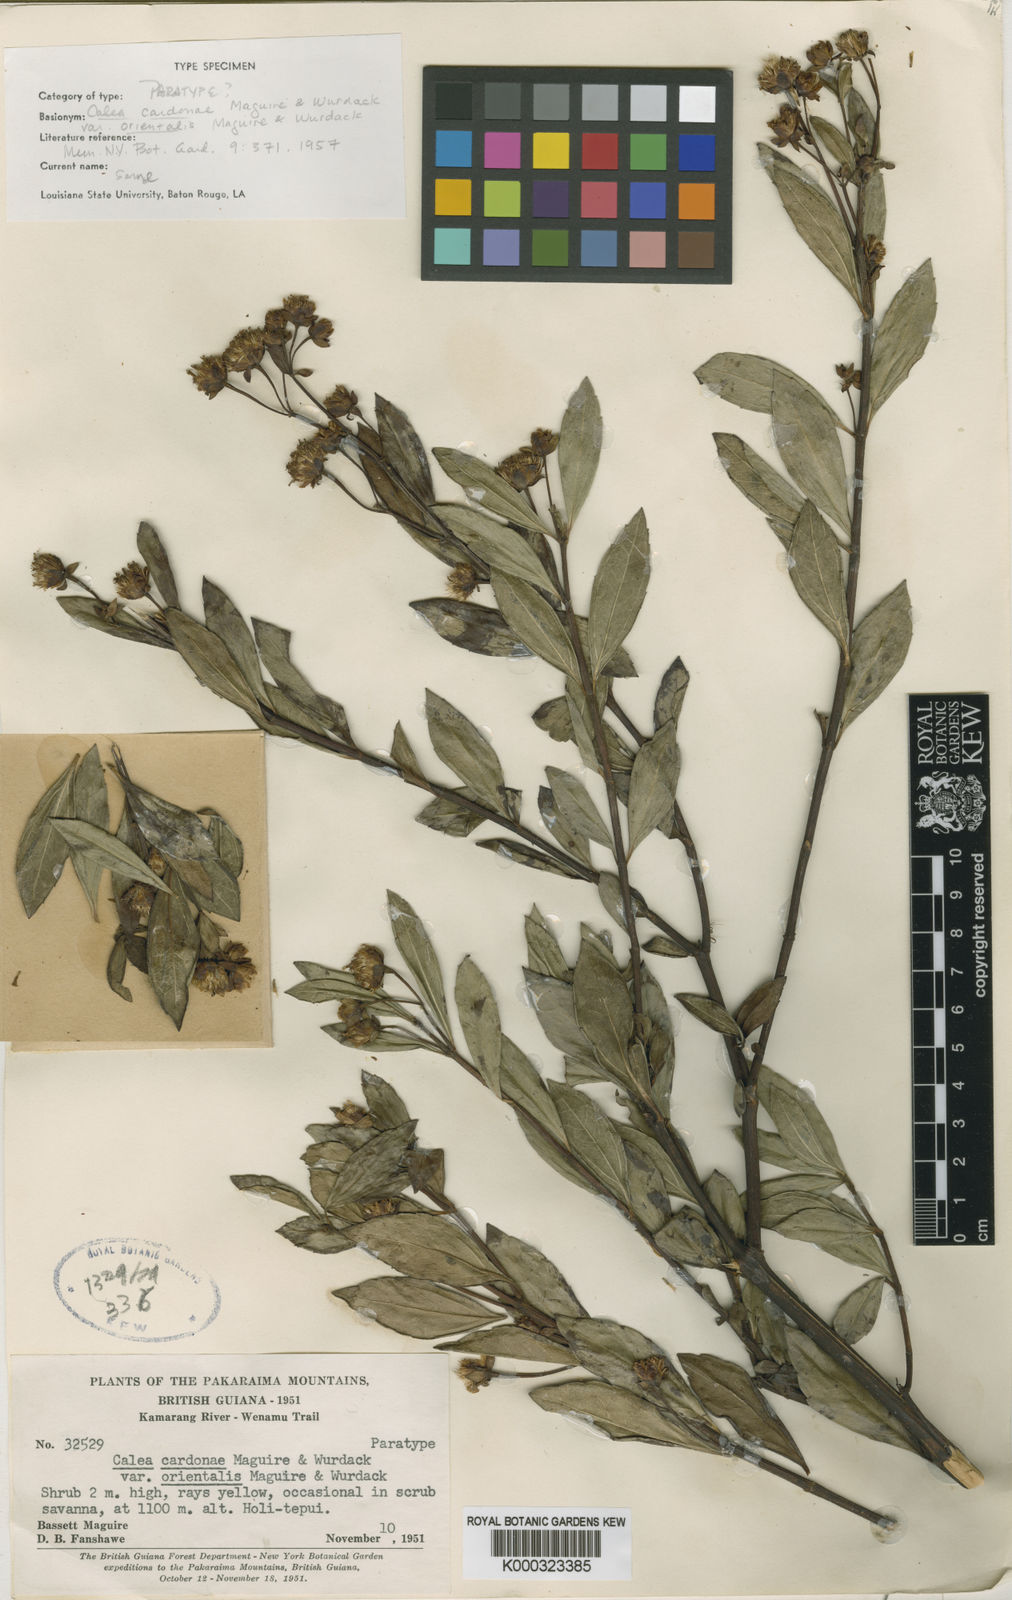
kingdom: Plantae
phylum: Tracheophyta
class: Magnoliopsida
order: Asterales
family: Asteraceae
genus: Calea
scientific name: Calea lucidivenia
